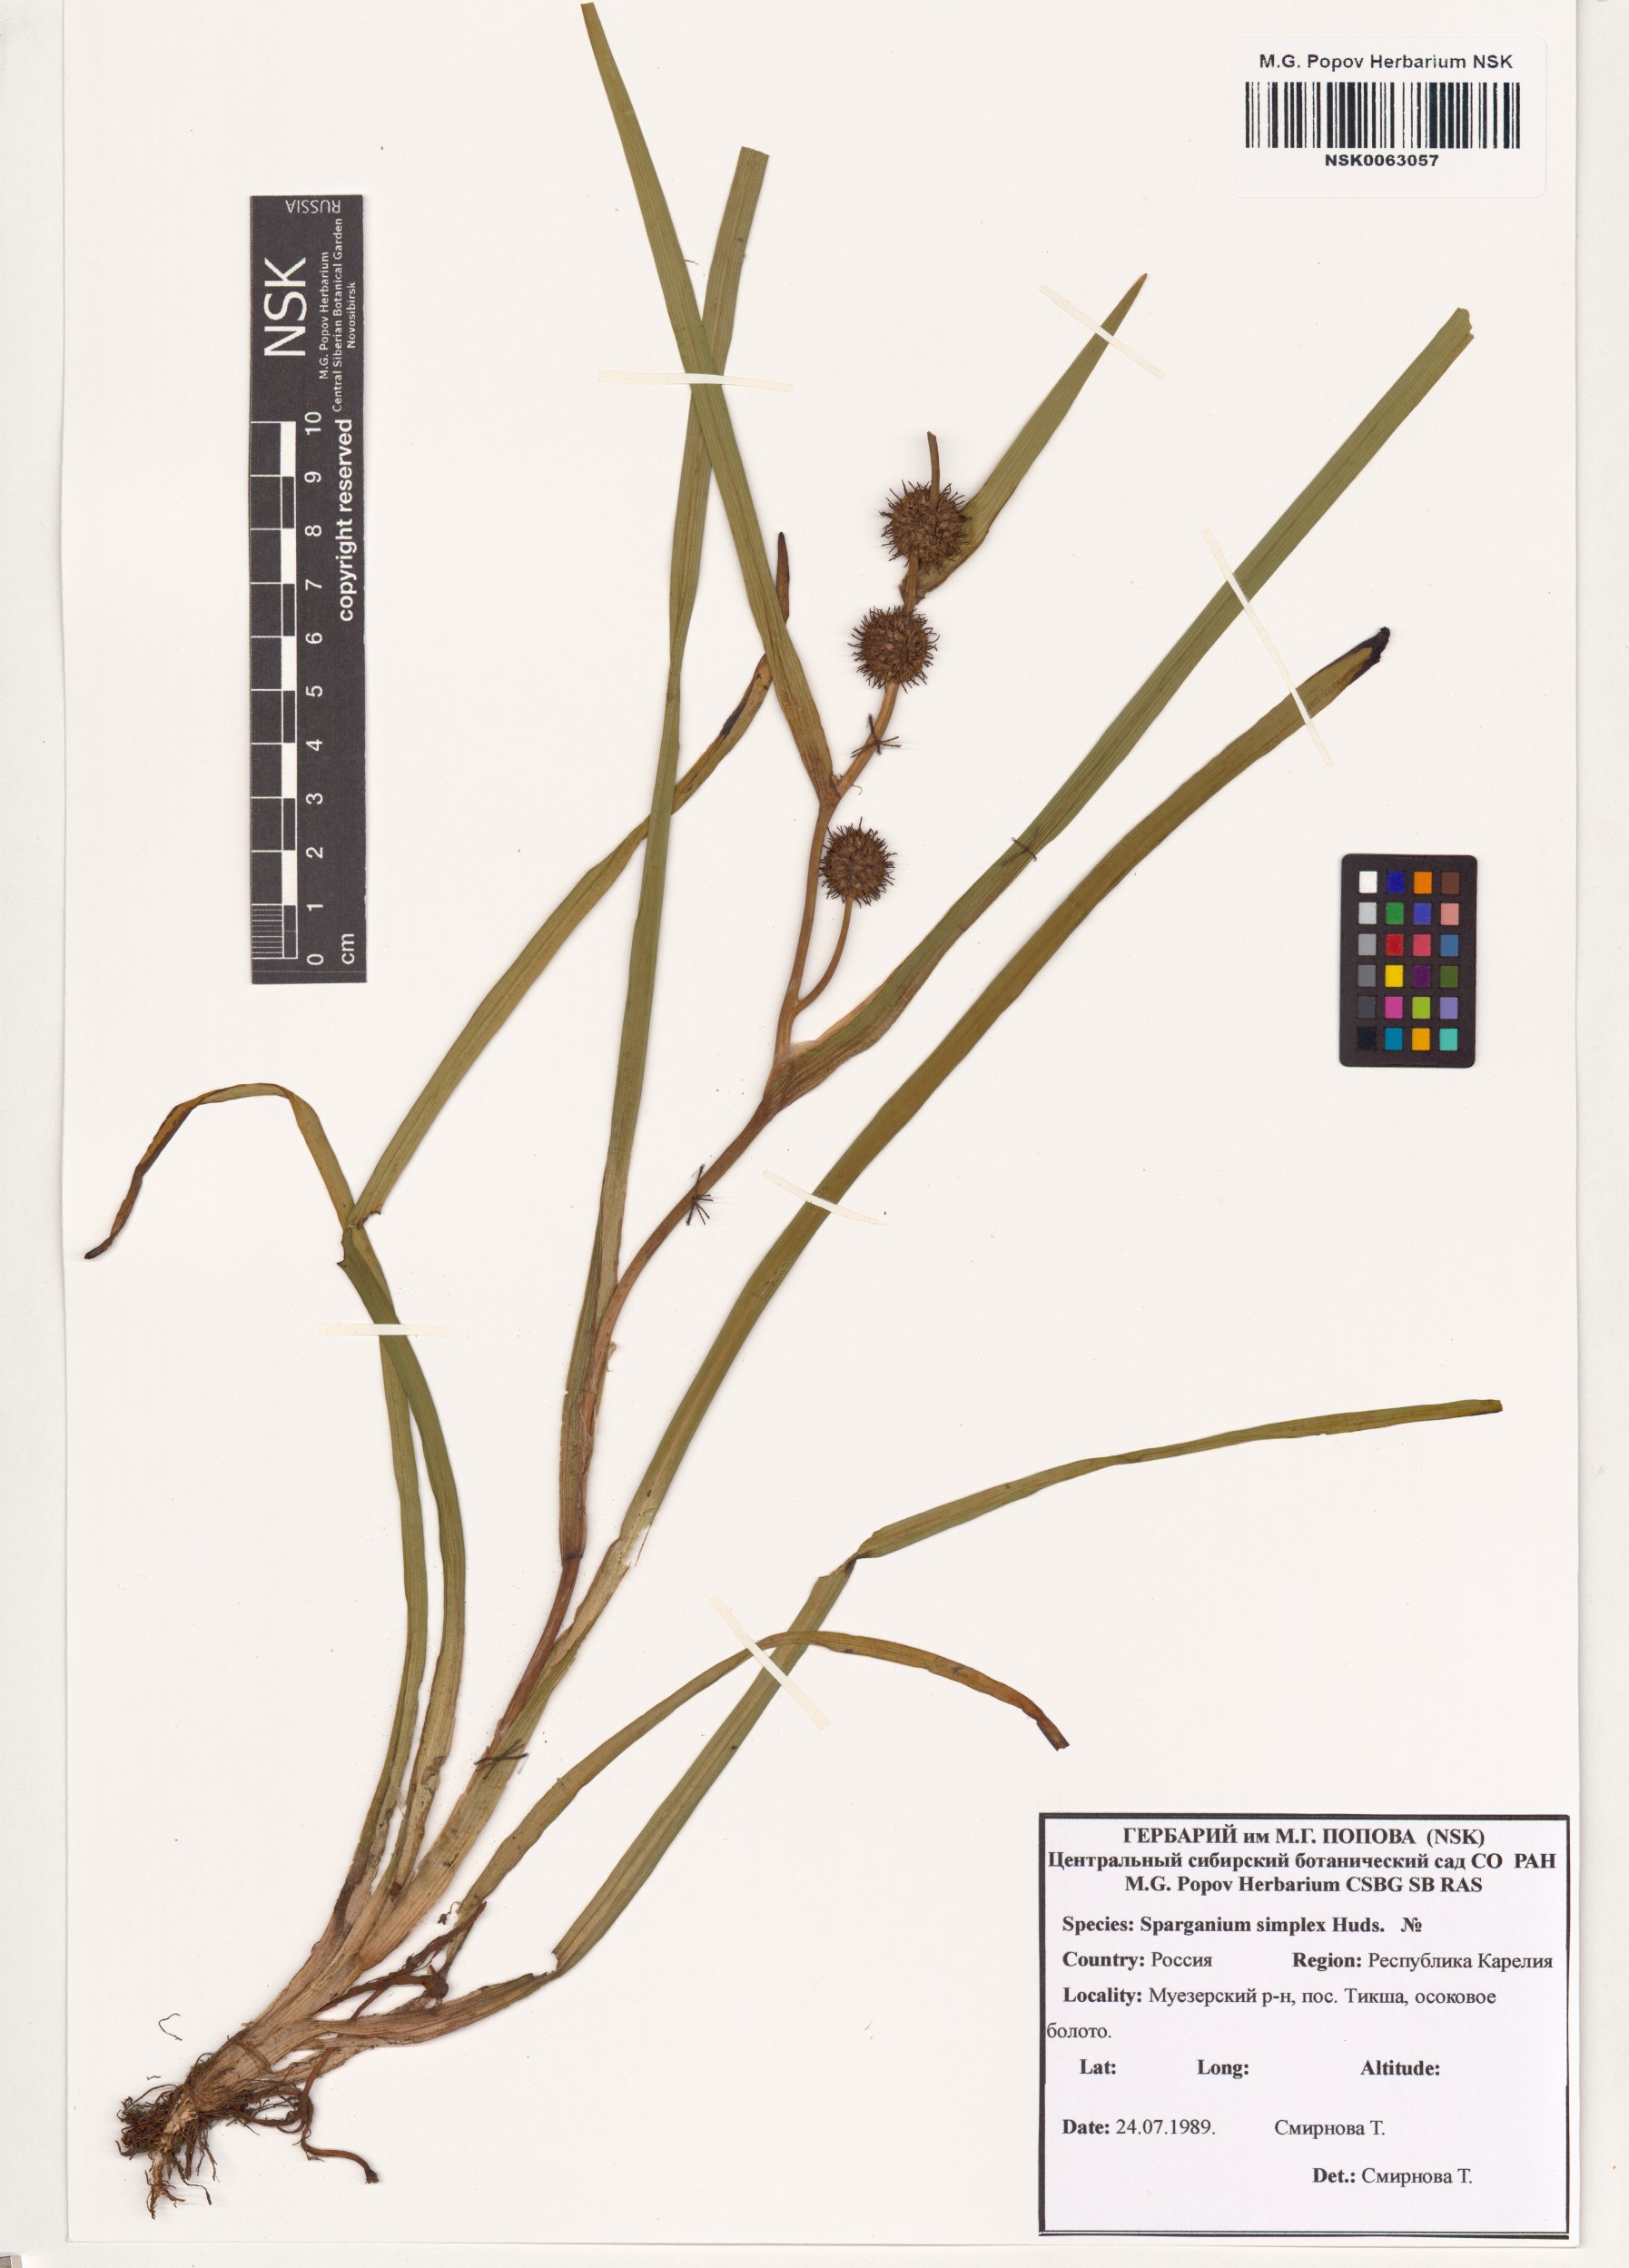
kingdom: Plantae
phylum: Tracheophyta
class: Liliopsida
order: Poales
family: Typhaceae
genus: Sparganium
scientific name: Sparganium emersum
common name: Unbranched bur-reed
